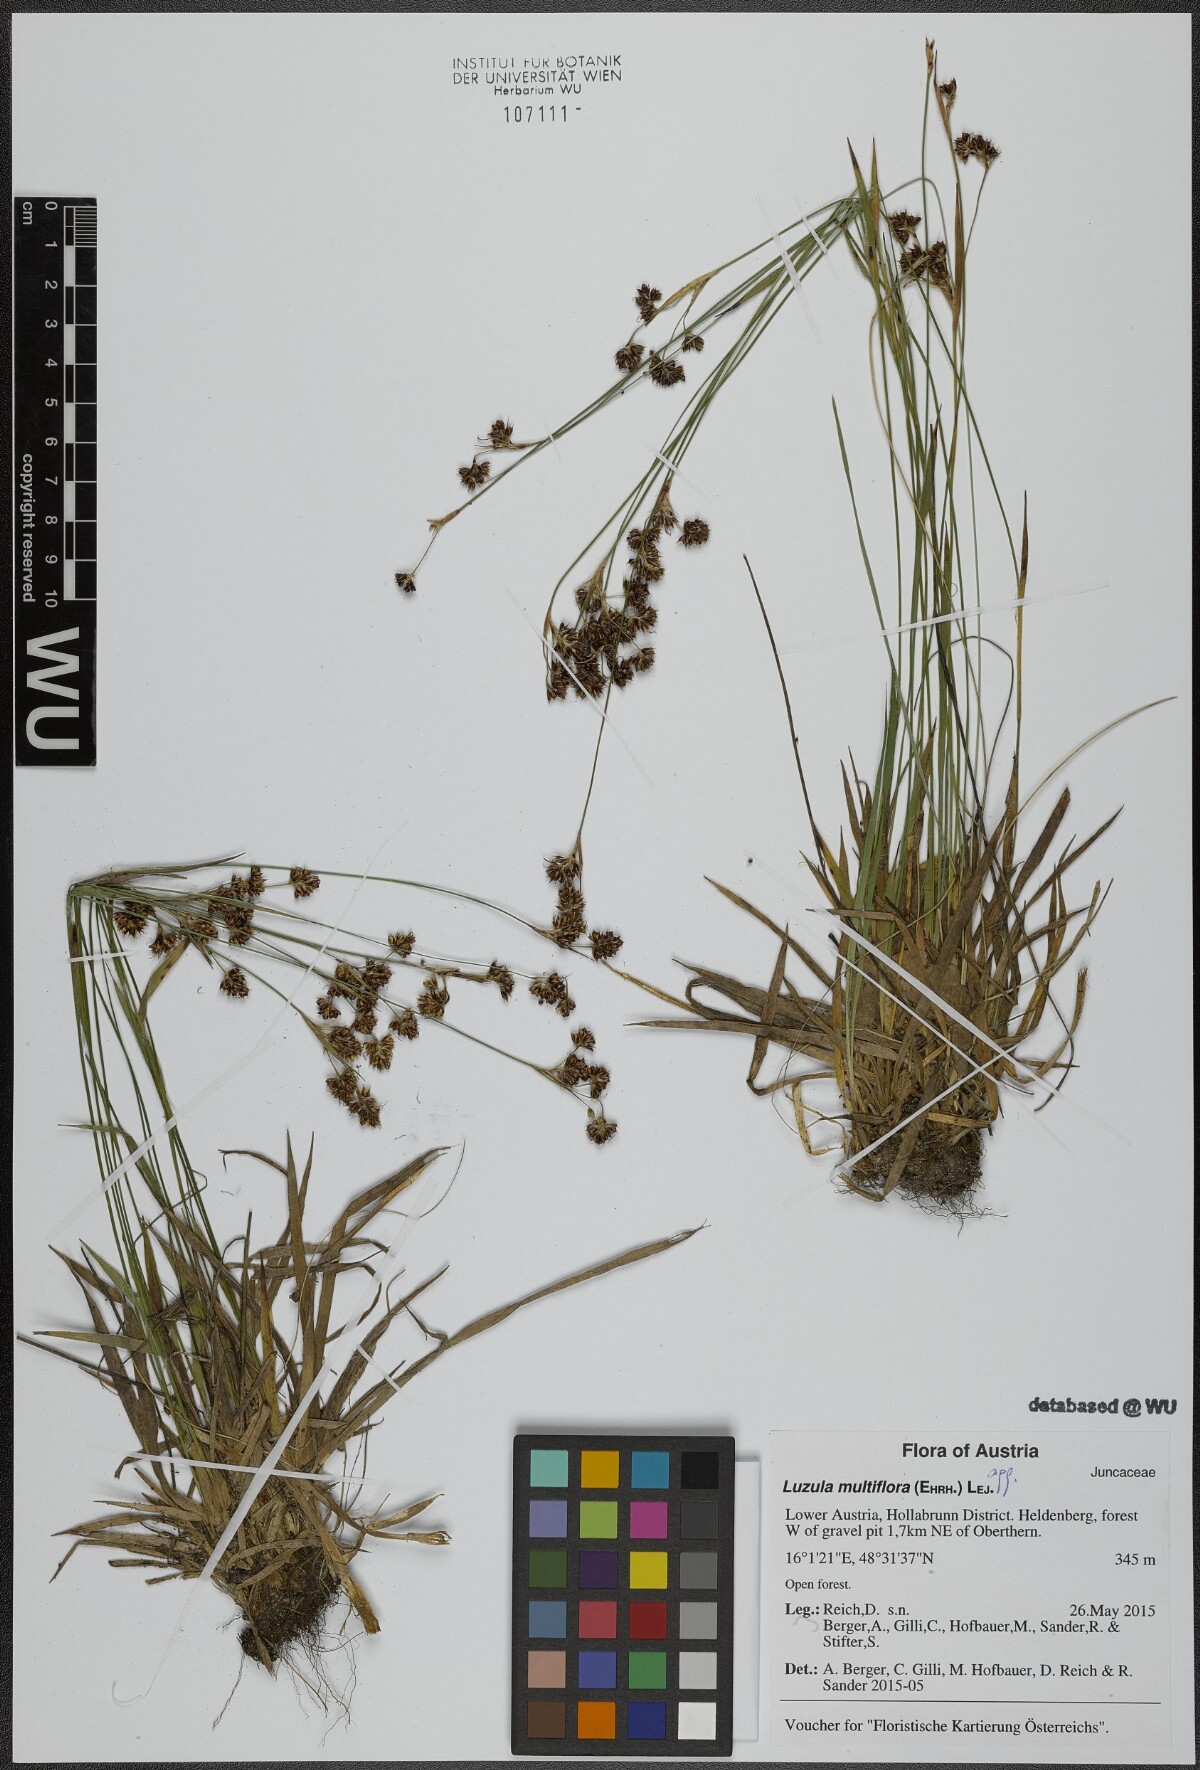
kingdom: Plantae
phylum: Tracheophyta
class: Liliopsida
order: Poales
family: Juncaceae
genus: Luzula
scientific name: Luzula multiflora
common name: Heath wood-rush
